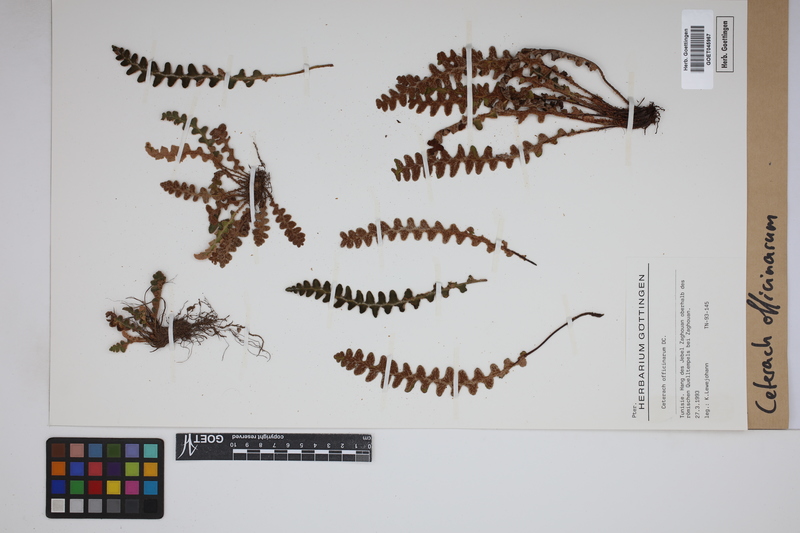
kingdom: Plantae
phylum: Tracheophyta
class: Polypodiopsida
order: Polypodiales
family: Aspleniaceae
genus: Asplenium
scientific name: Asplenium ceterach
